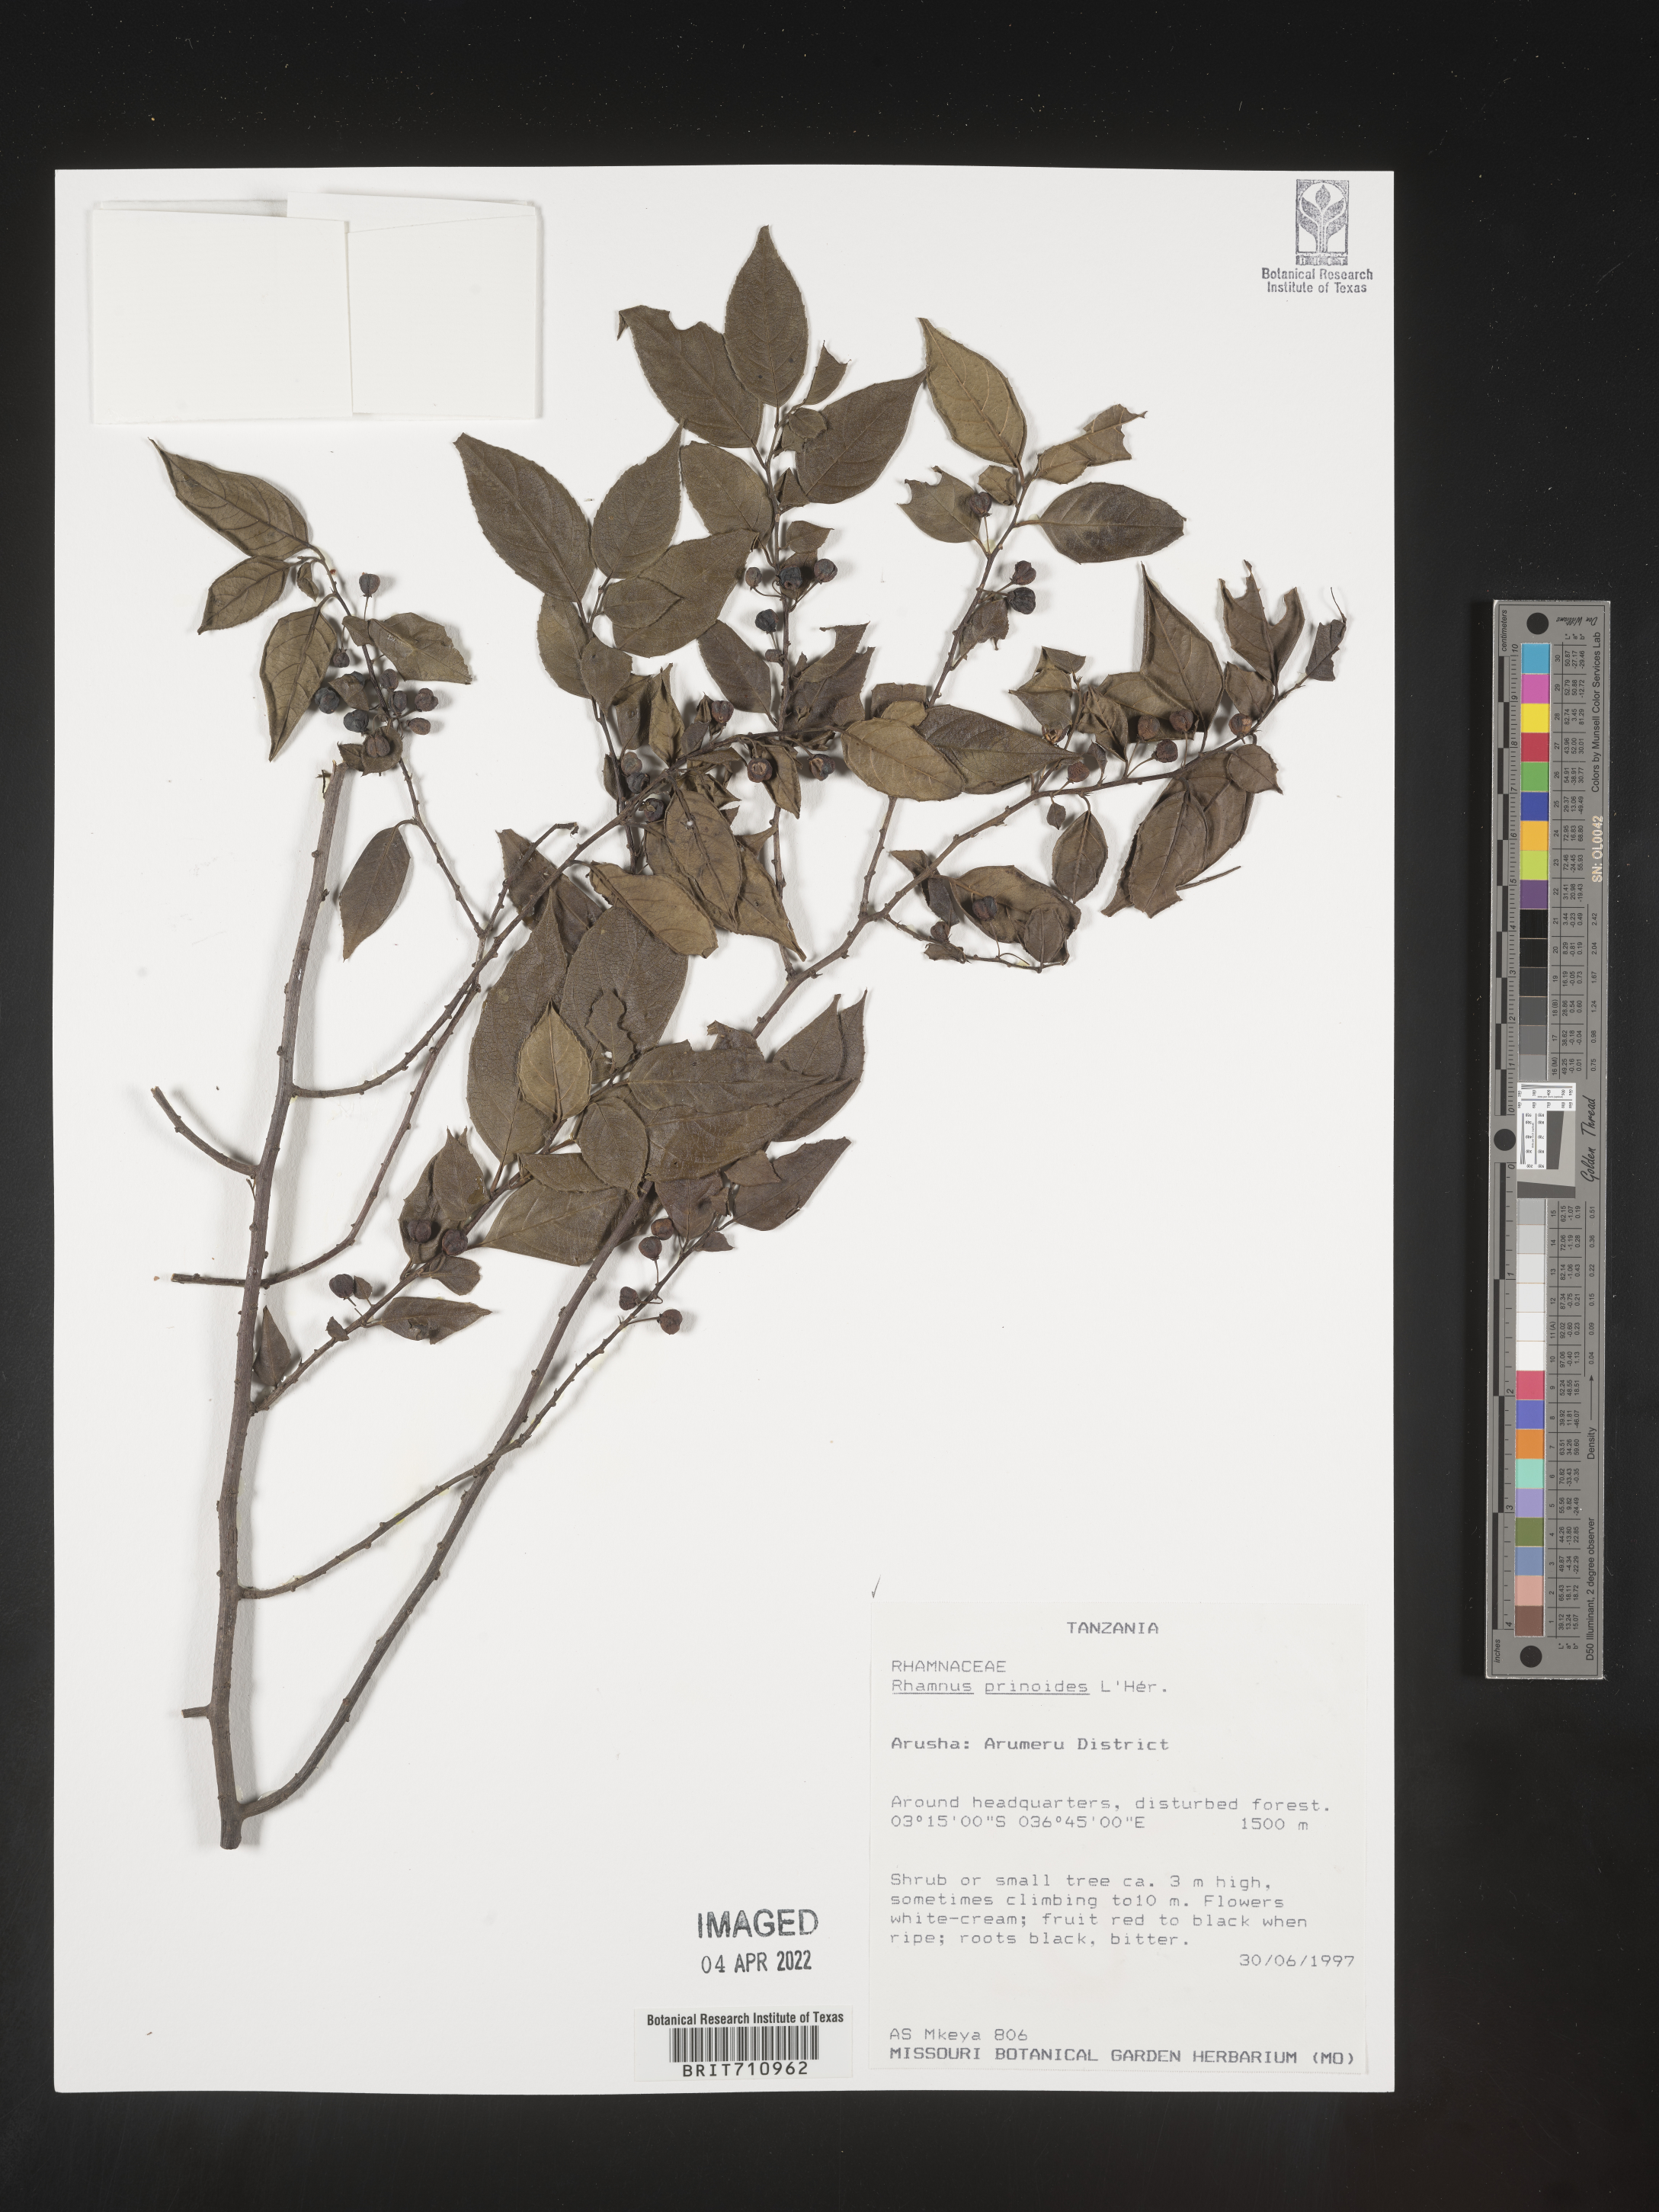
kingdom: Plantae
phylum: Tracheophyta
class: Magnoliopsida
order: Rosales
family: Rhamnaceae
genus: Rhamnus
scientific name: Rhamnus
